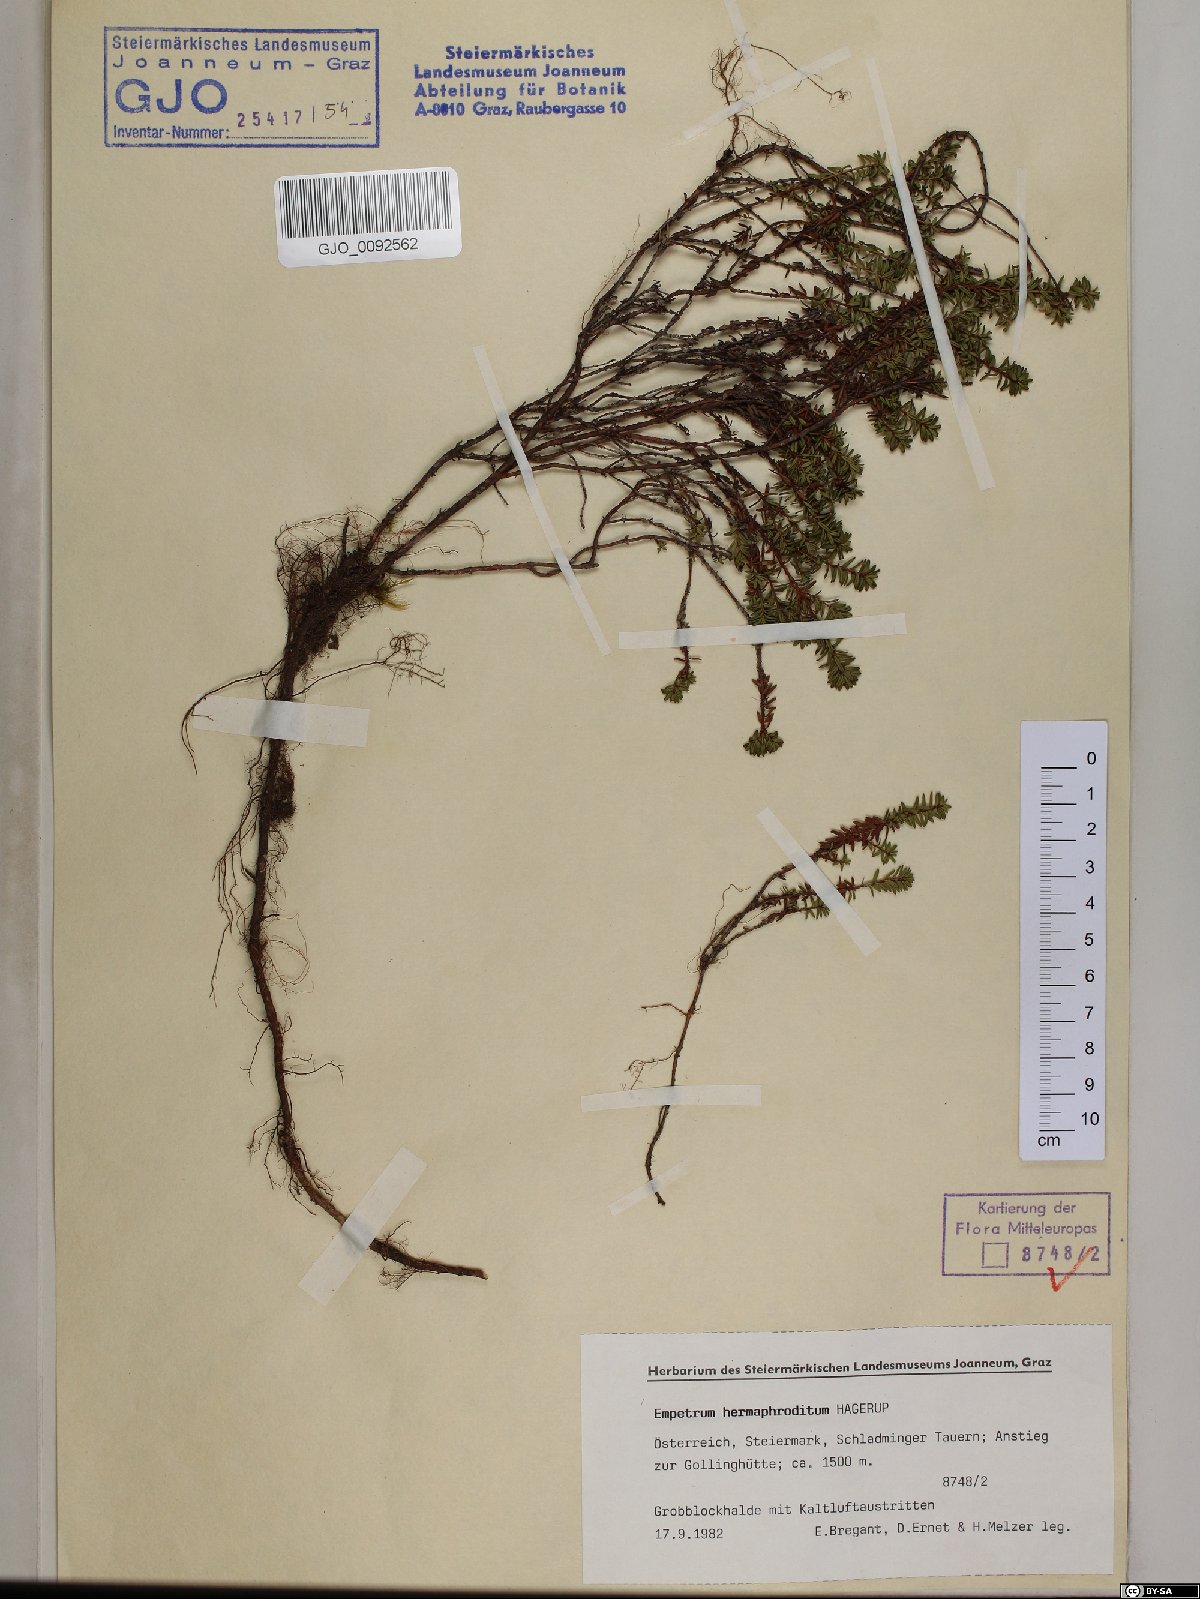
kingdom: Plantae
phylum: Tracheophyta
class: Magnoliopsida
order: Ericales
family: Ericaceae
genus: Empetrum
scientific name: Empetrum hermaphroditum
